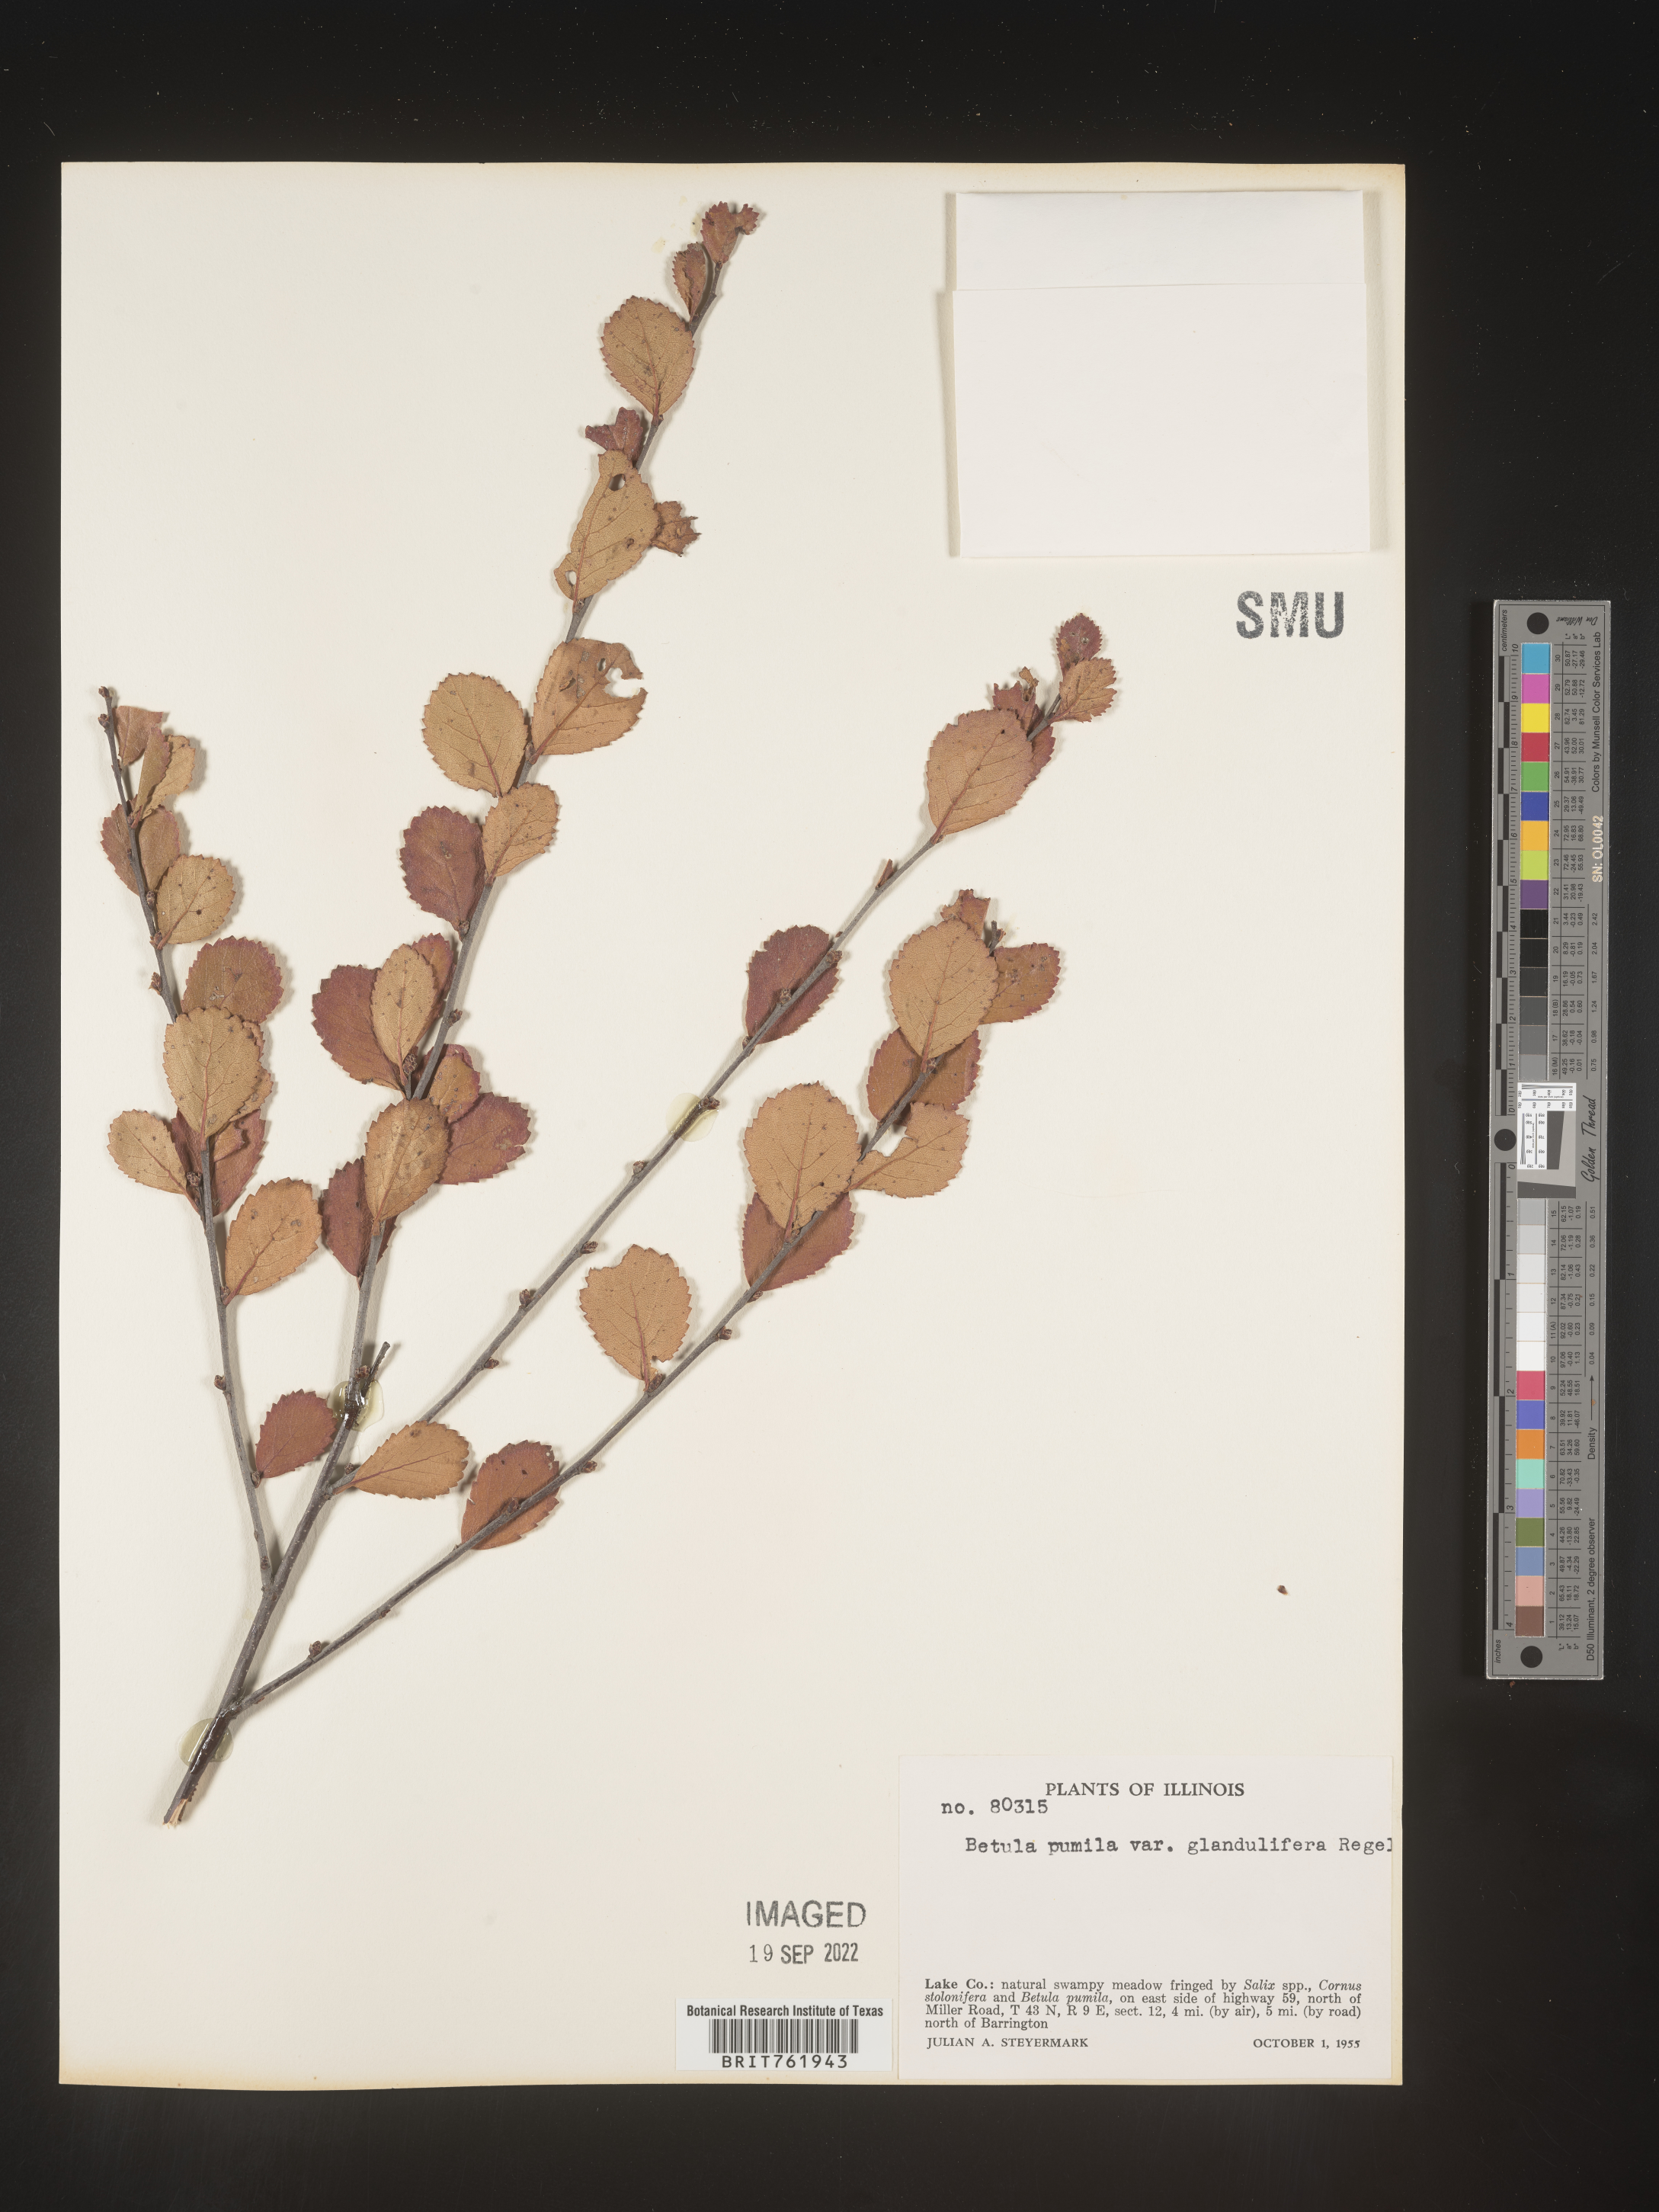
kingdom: Plantae
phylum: Tracheophyta
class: Magnoliopsida
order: Fagales
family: Betulaceae
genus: Betula
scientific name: Betula pumila
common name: Bog birch
